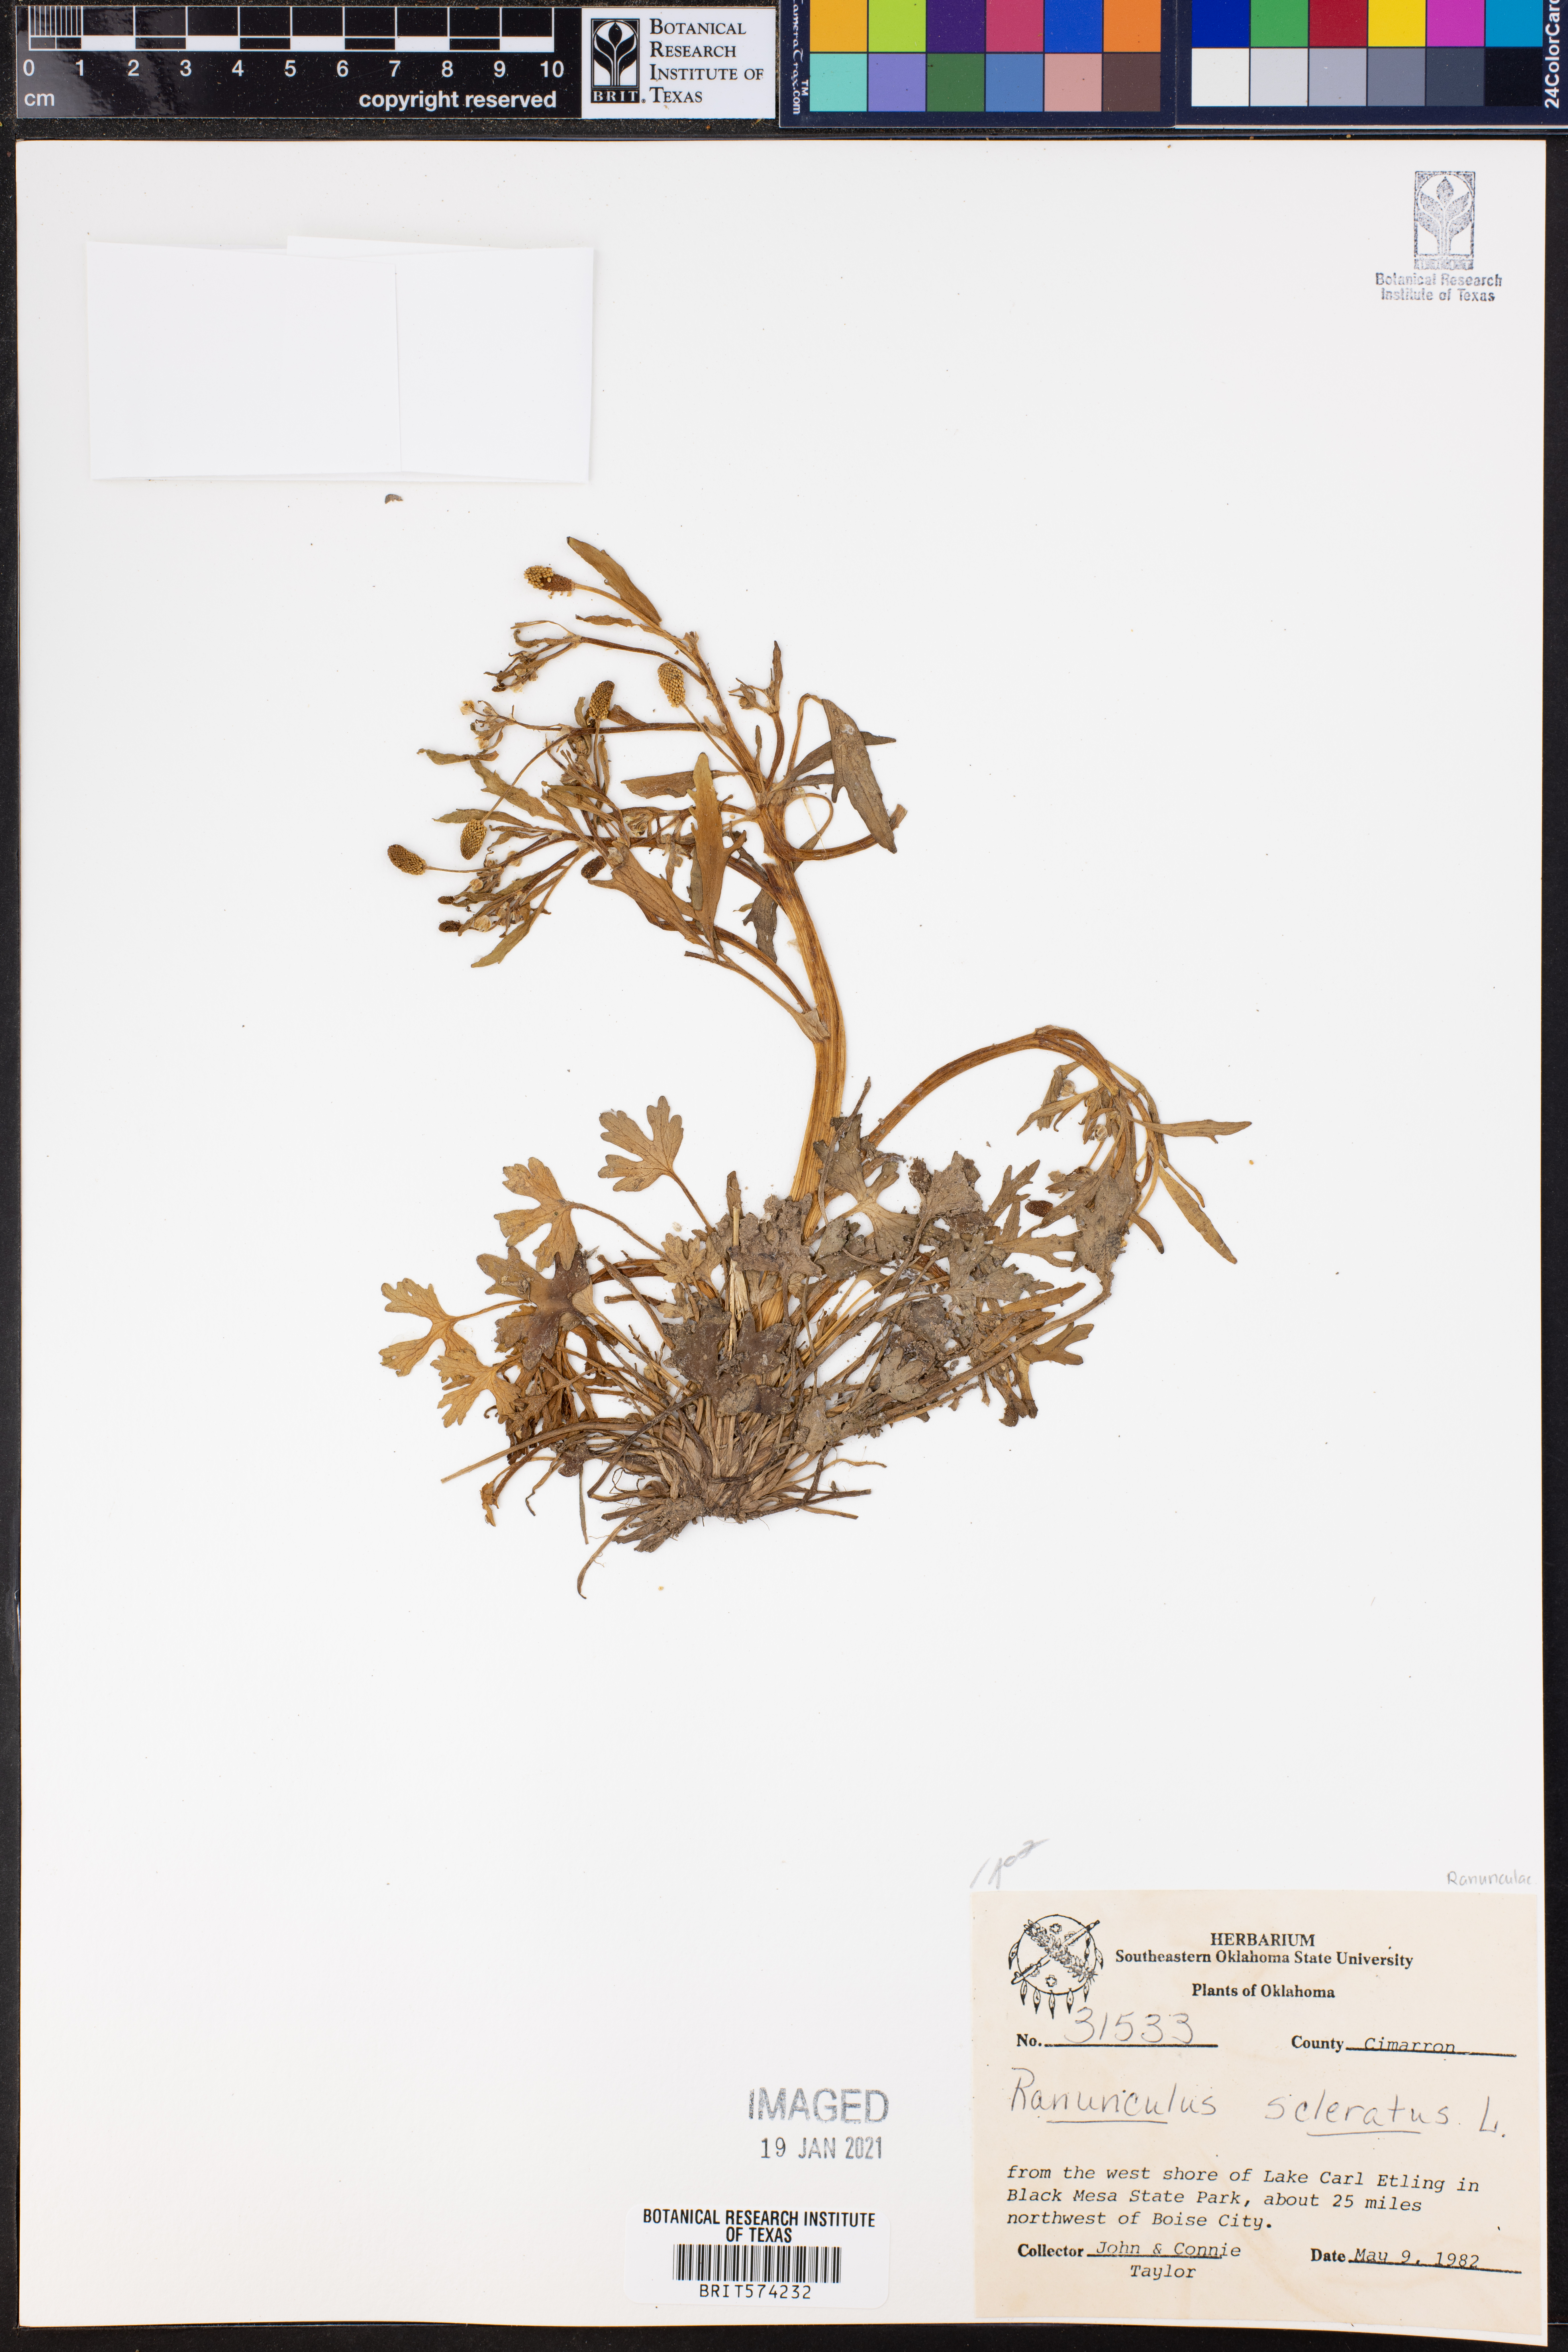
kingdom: Plantae
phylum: Tracheophyta
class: Magnoliopsida
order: Ranunculales
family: Ranunculaceae
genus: Ranunculus
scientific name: Ranunculus sceleratus
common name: Celery-leaved buttercup
